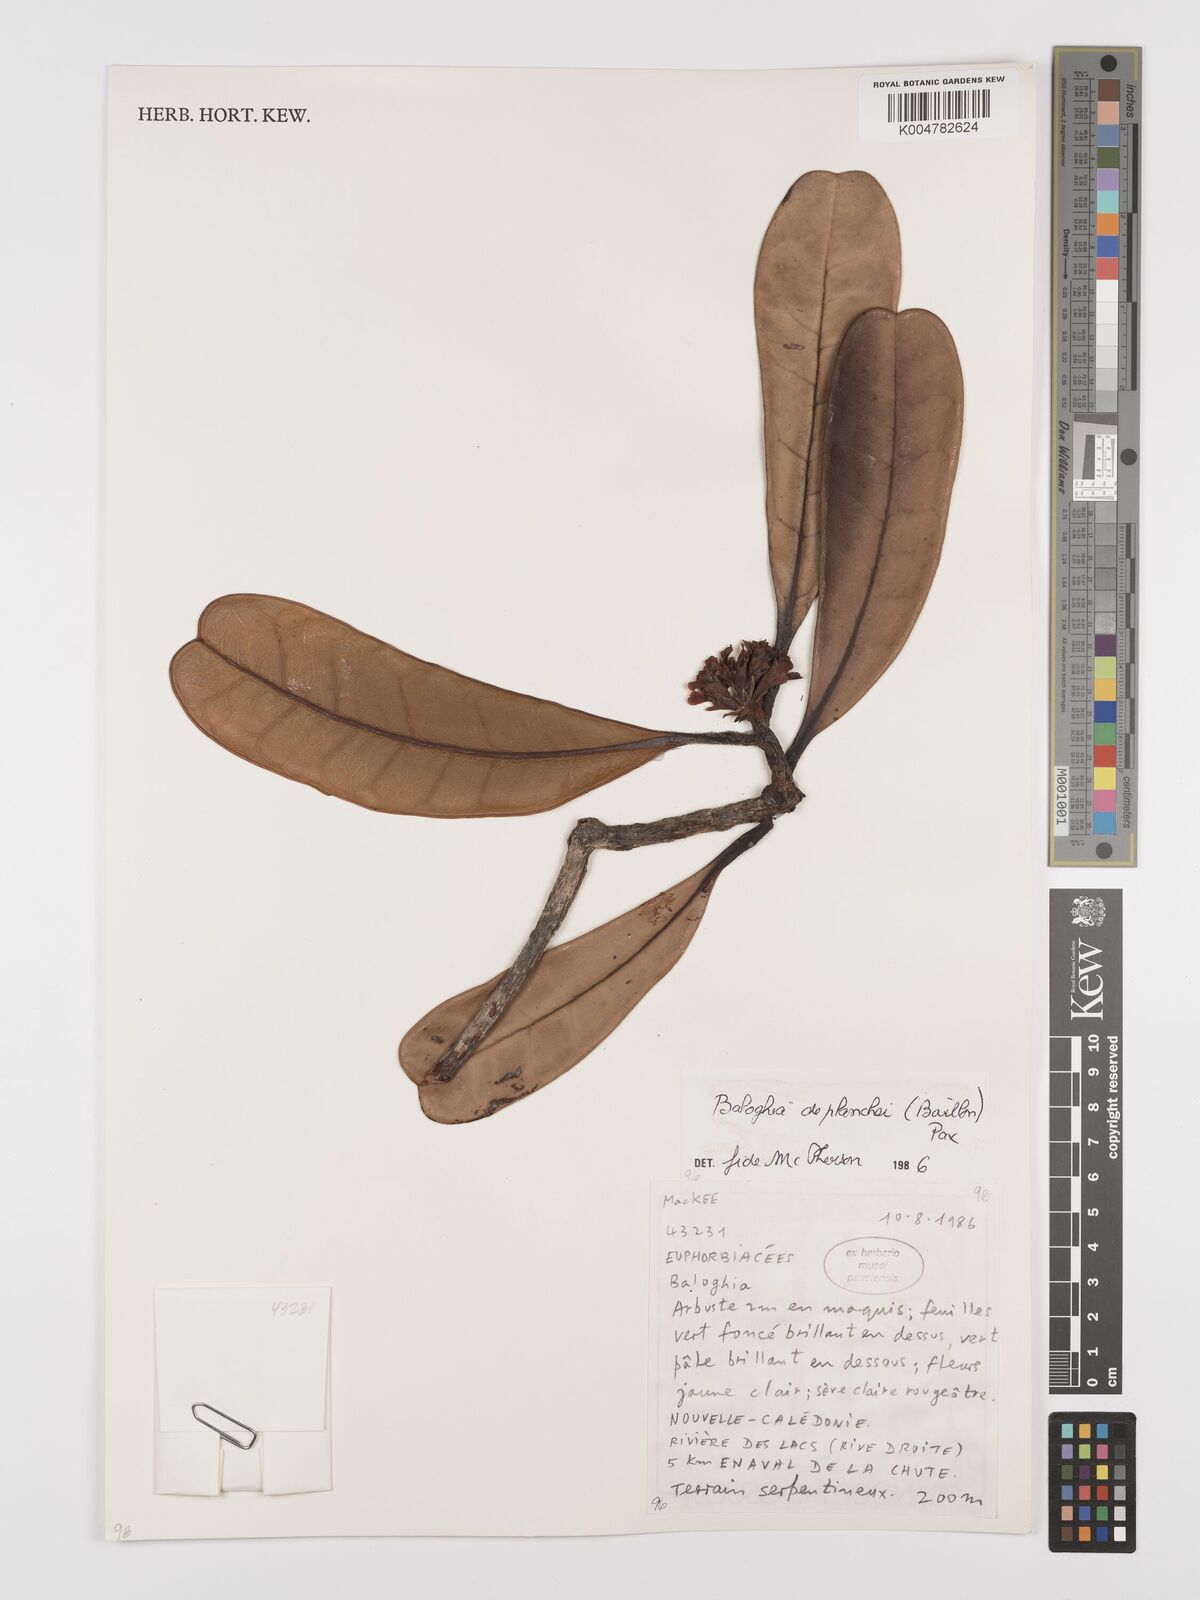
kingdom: Plantae
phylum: Tracheophyta
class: Magnoliopsida
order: Malpighiales
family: Euphorbiaceae
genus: Baloghia
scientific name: Baloghia deplanchei
